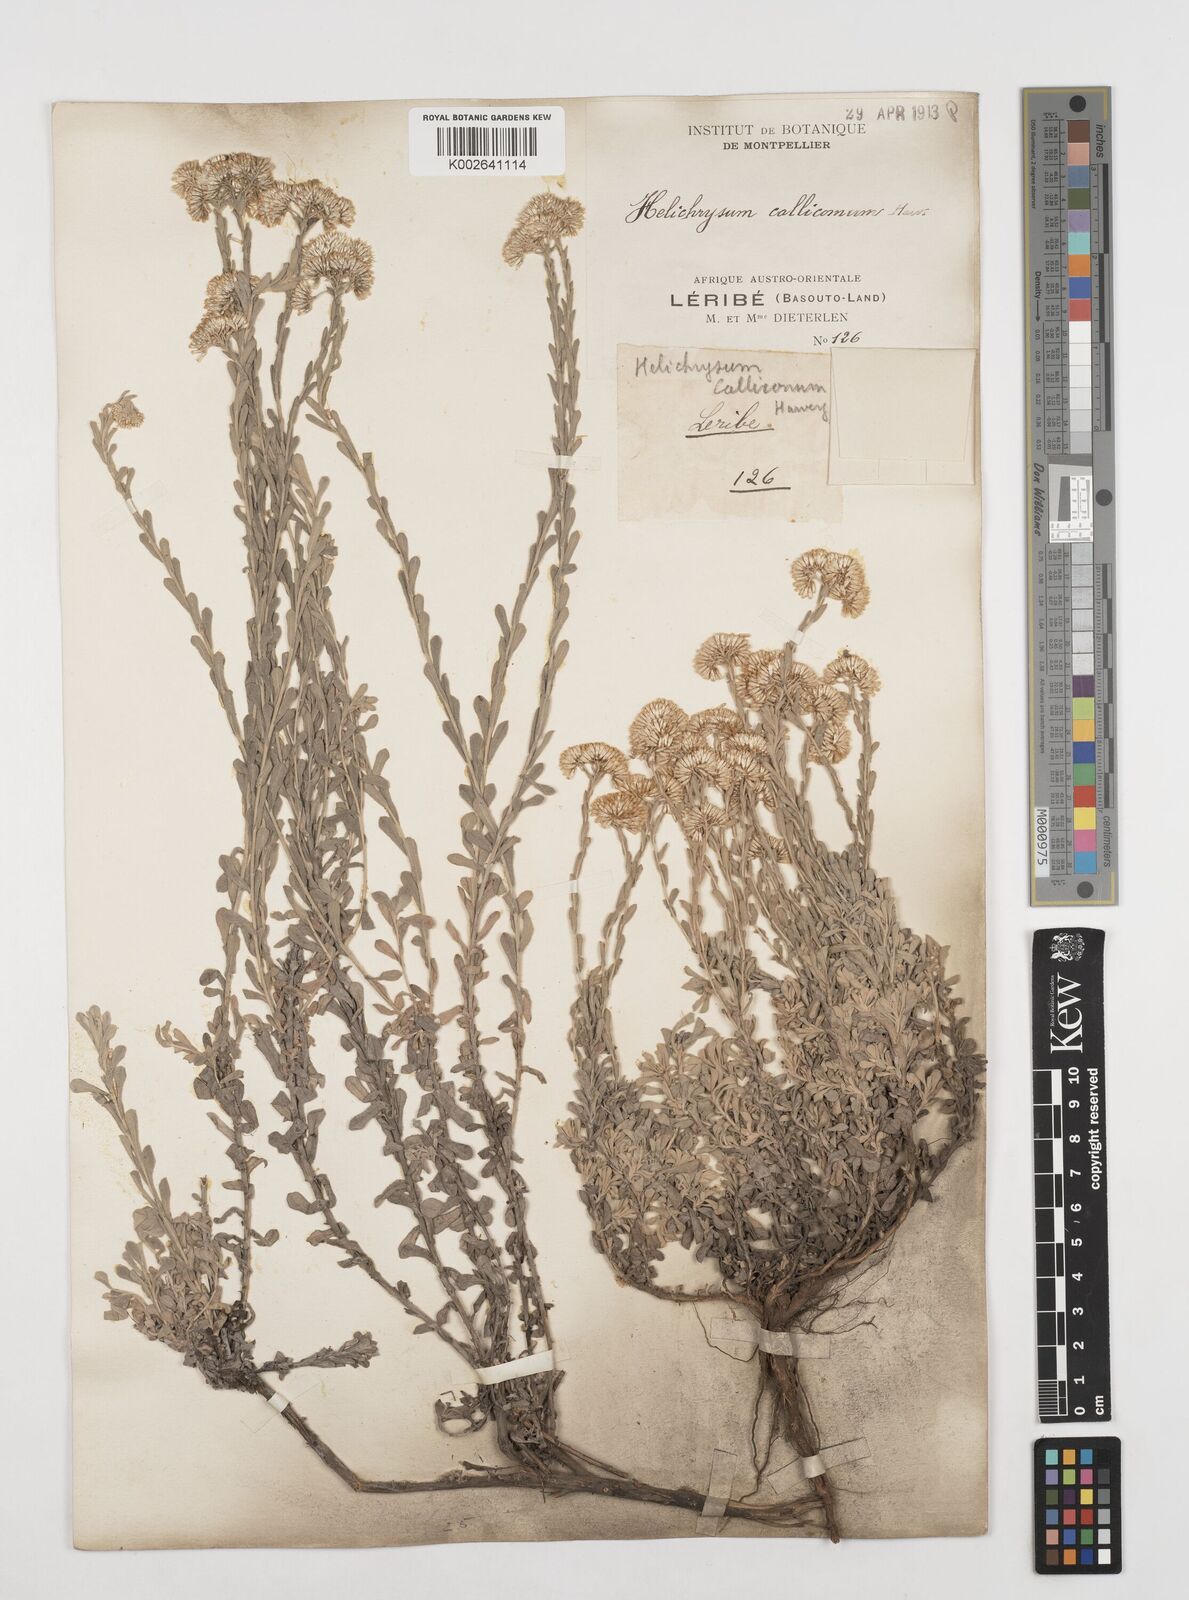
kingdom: Plantae
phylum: Tracheophyta
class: Magnoliopsida
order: Asterales
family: Asteraceae
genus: Helichrysum
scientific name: Helichrysum callicomum
